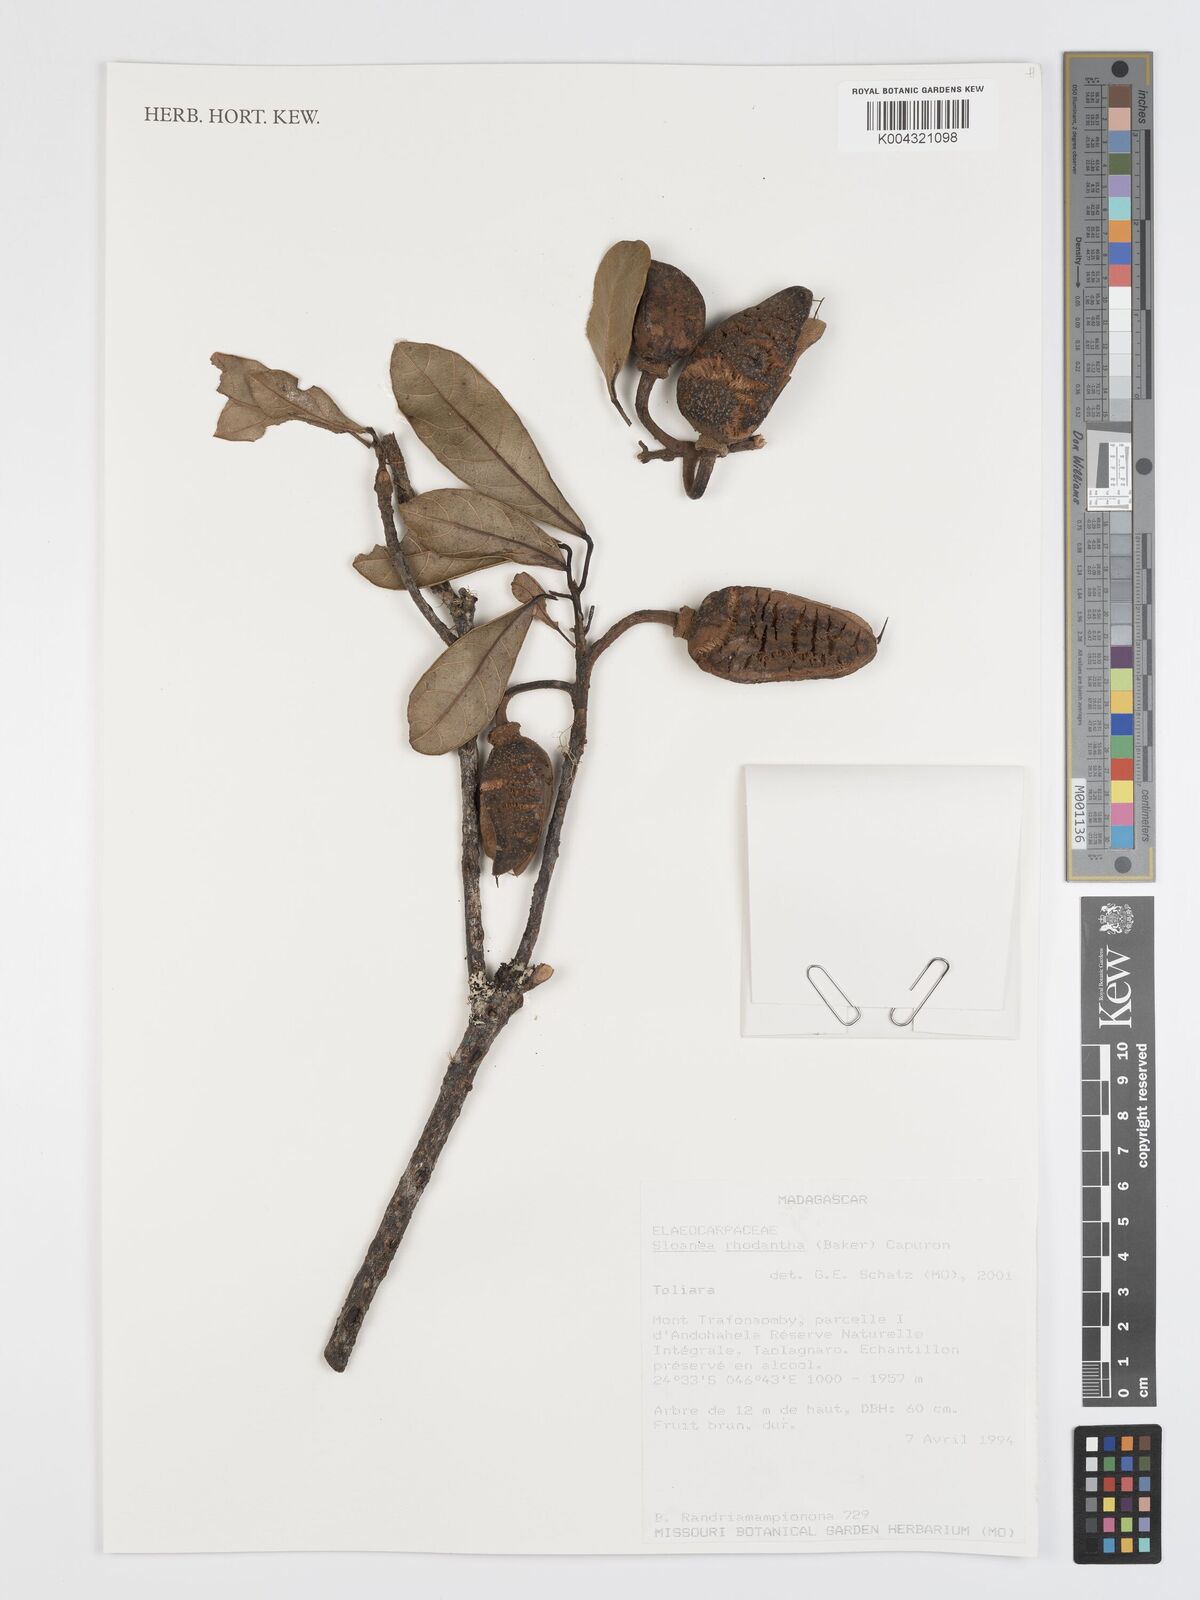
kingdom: Plantae
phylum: Tracheophyta
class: Magnoliopsida
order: Oxalidales
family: Elaeocarpaceae
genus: Sloanea
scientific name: Sloanea rhodantha
